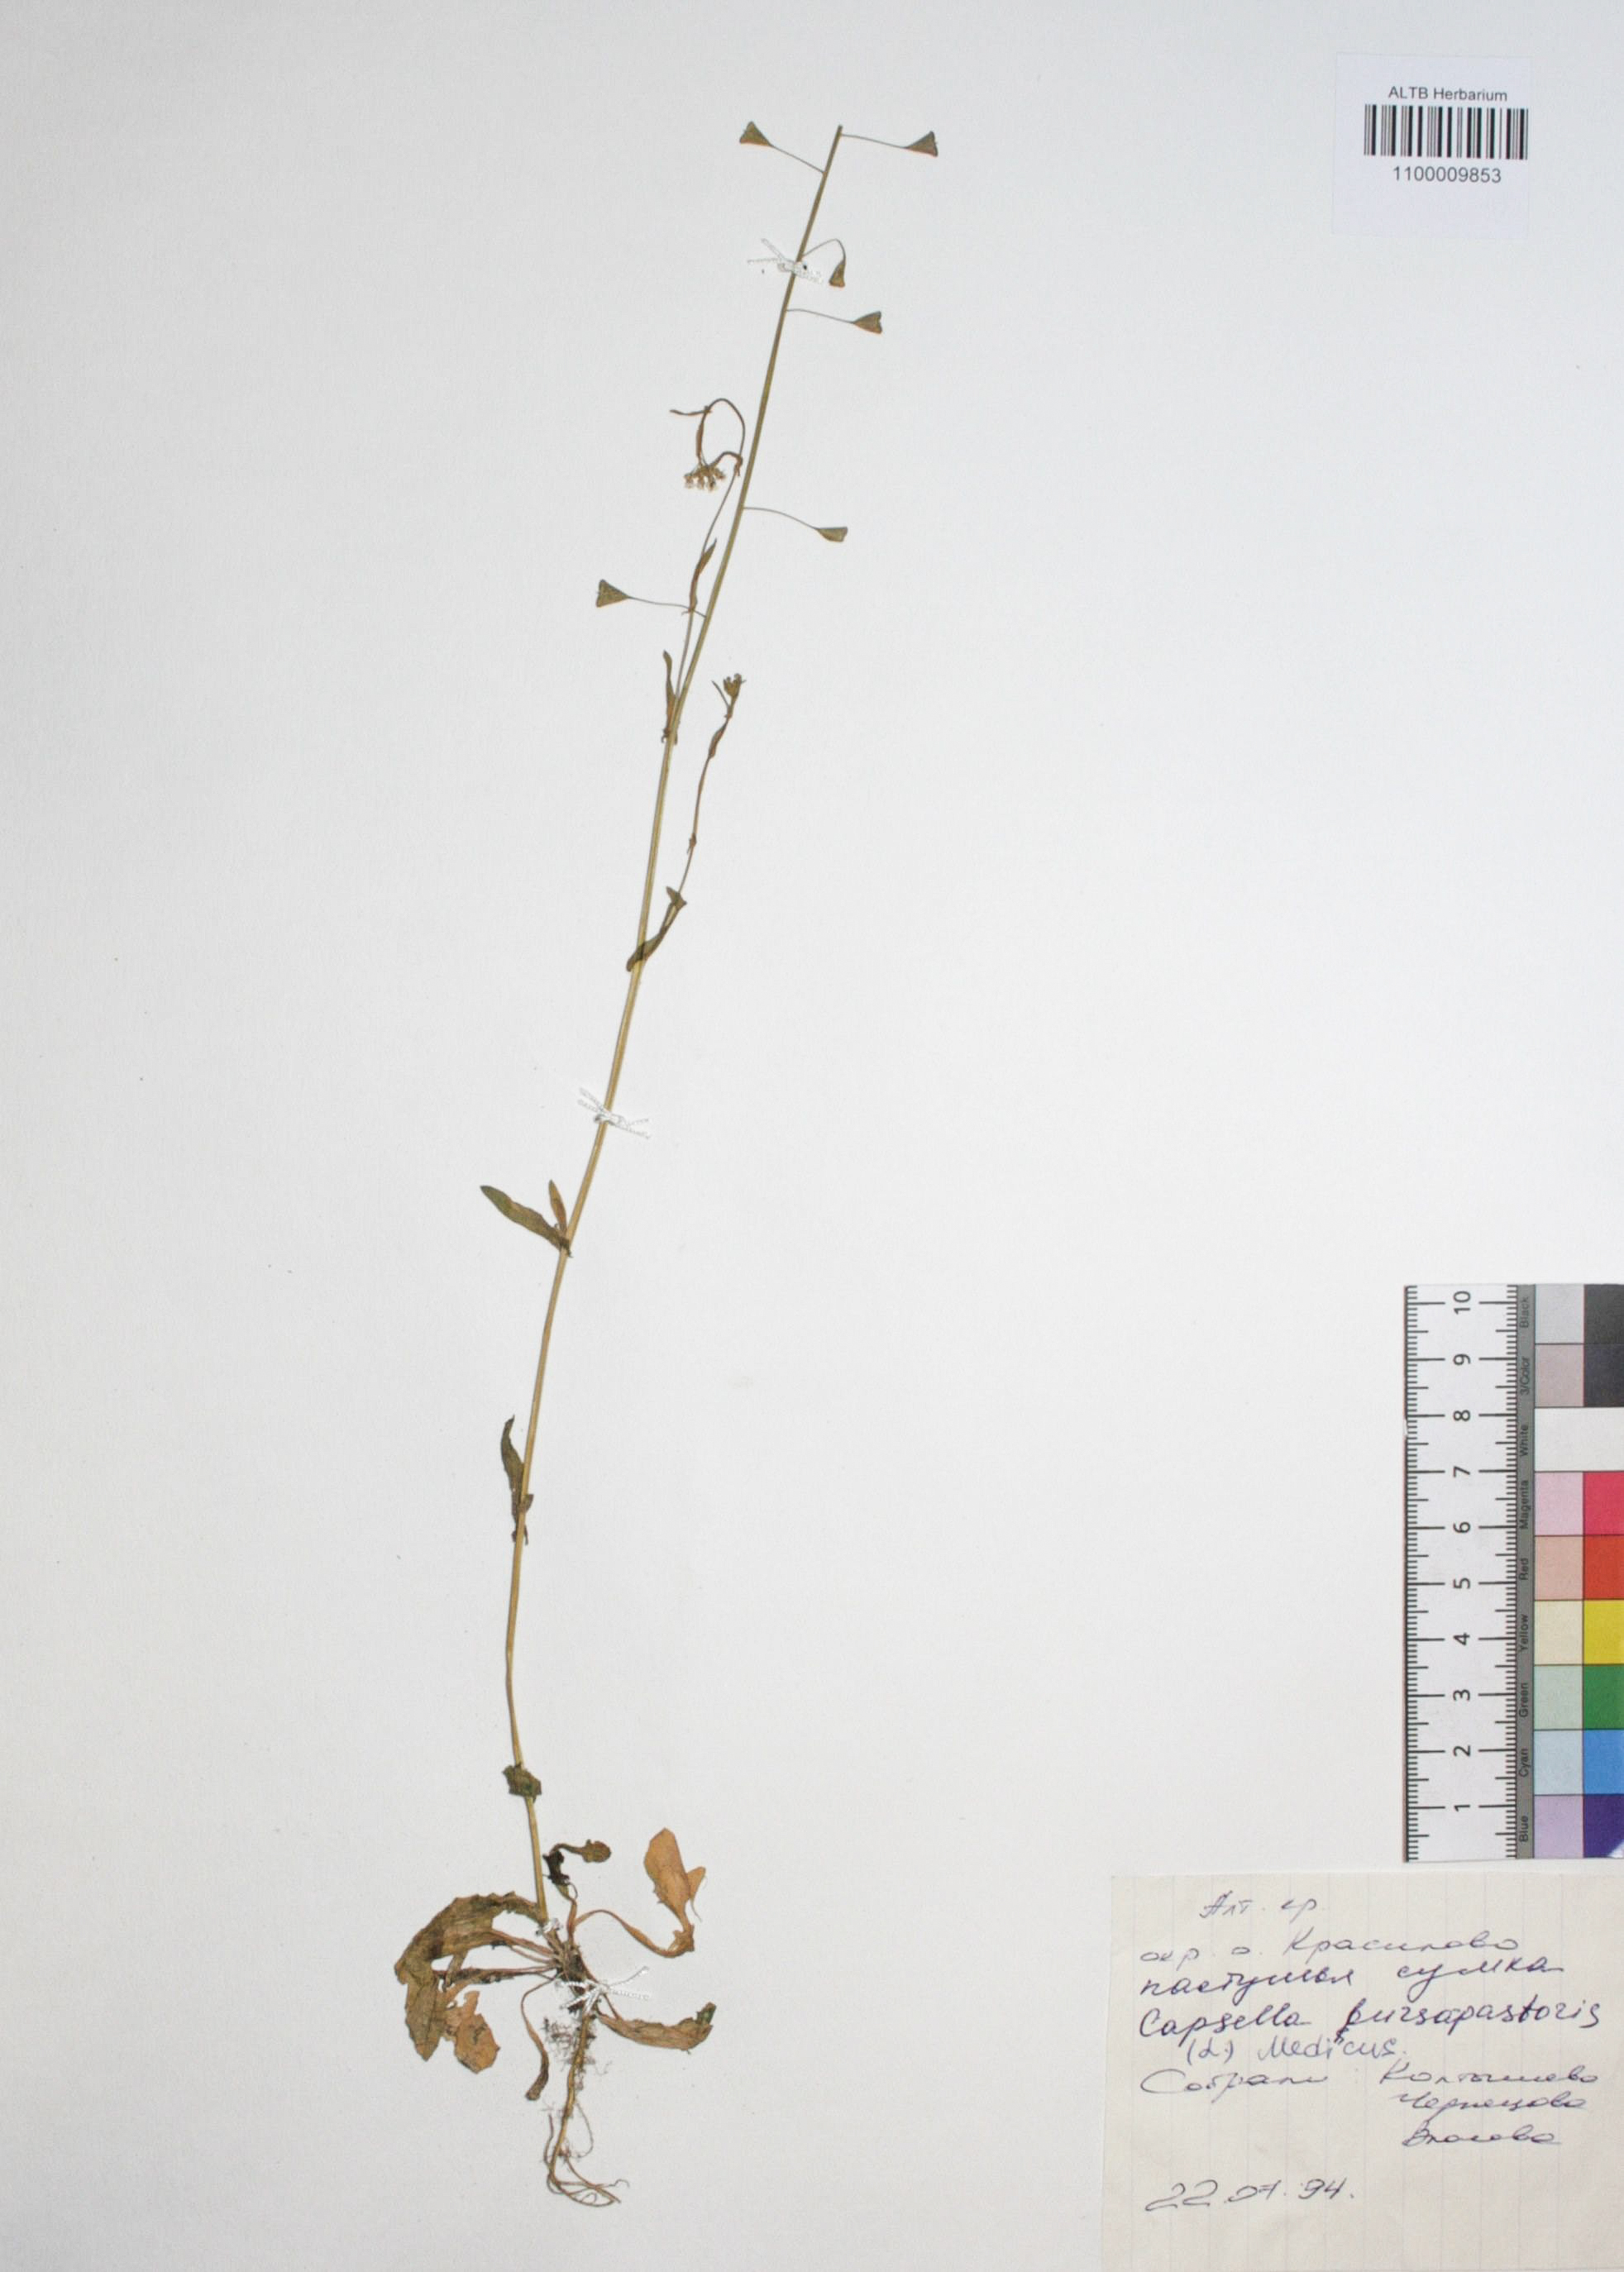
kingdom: Plantae
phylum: Tracheophyta
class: Magnoliopsida
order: Brassicales
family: Brassicaceae
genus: Capsella
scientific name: Capsella bursa-pastoris
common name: Shepherd's purse
